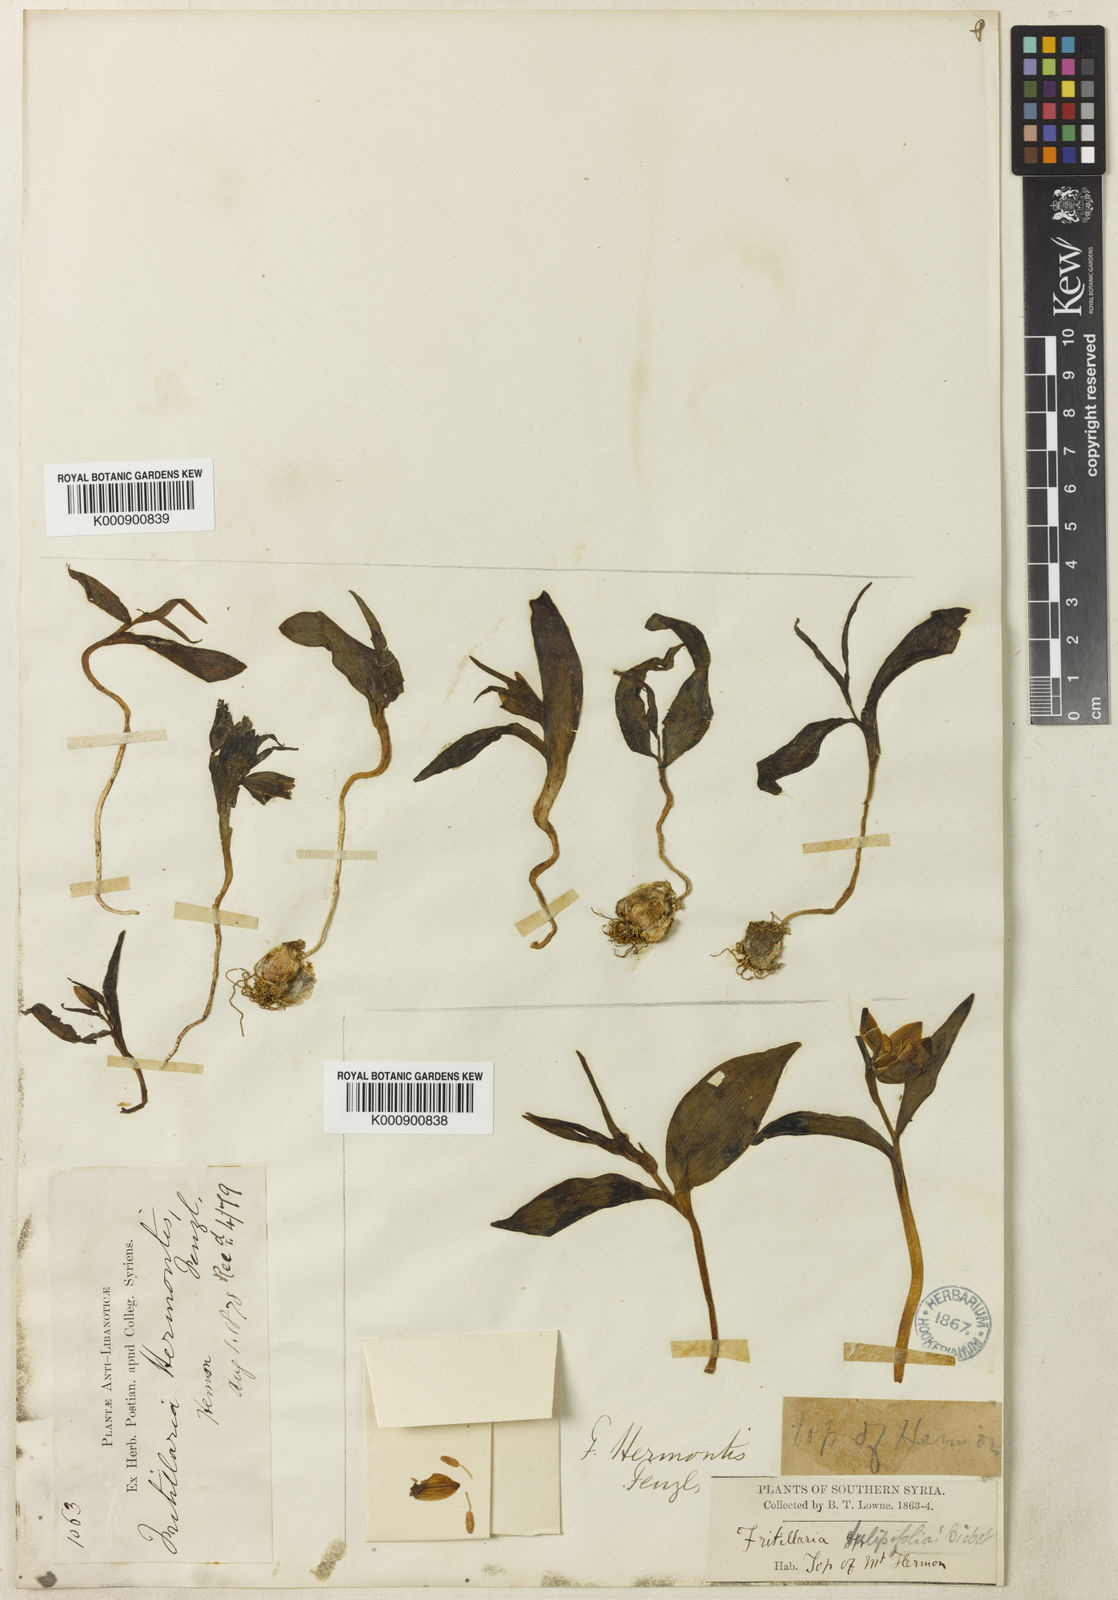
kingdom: Plantae
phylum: Tracheophyta
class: Liliopsida
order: Liliales
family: Liliaceae
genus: Fritillaria
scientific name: Fritillaria crassifolia
